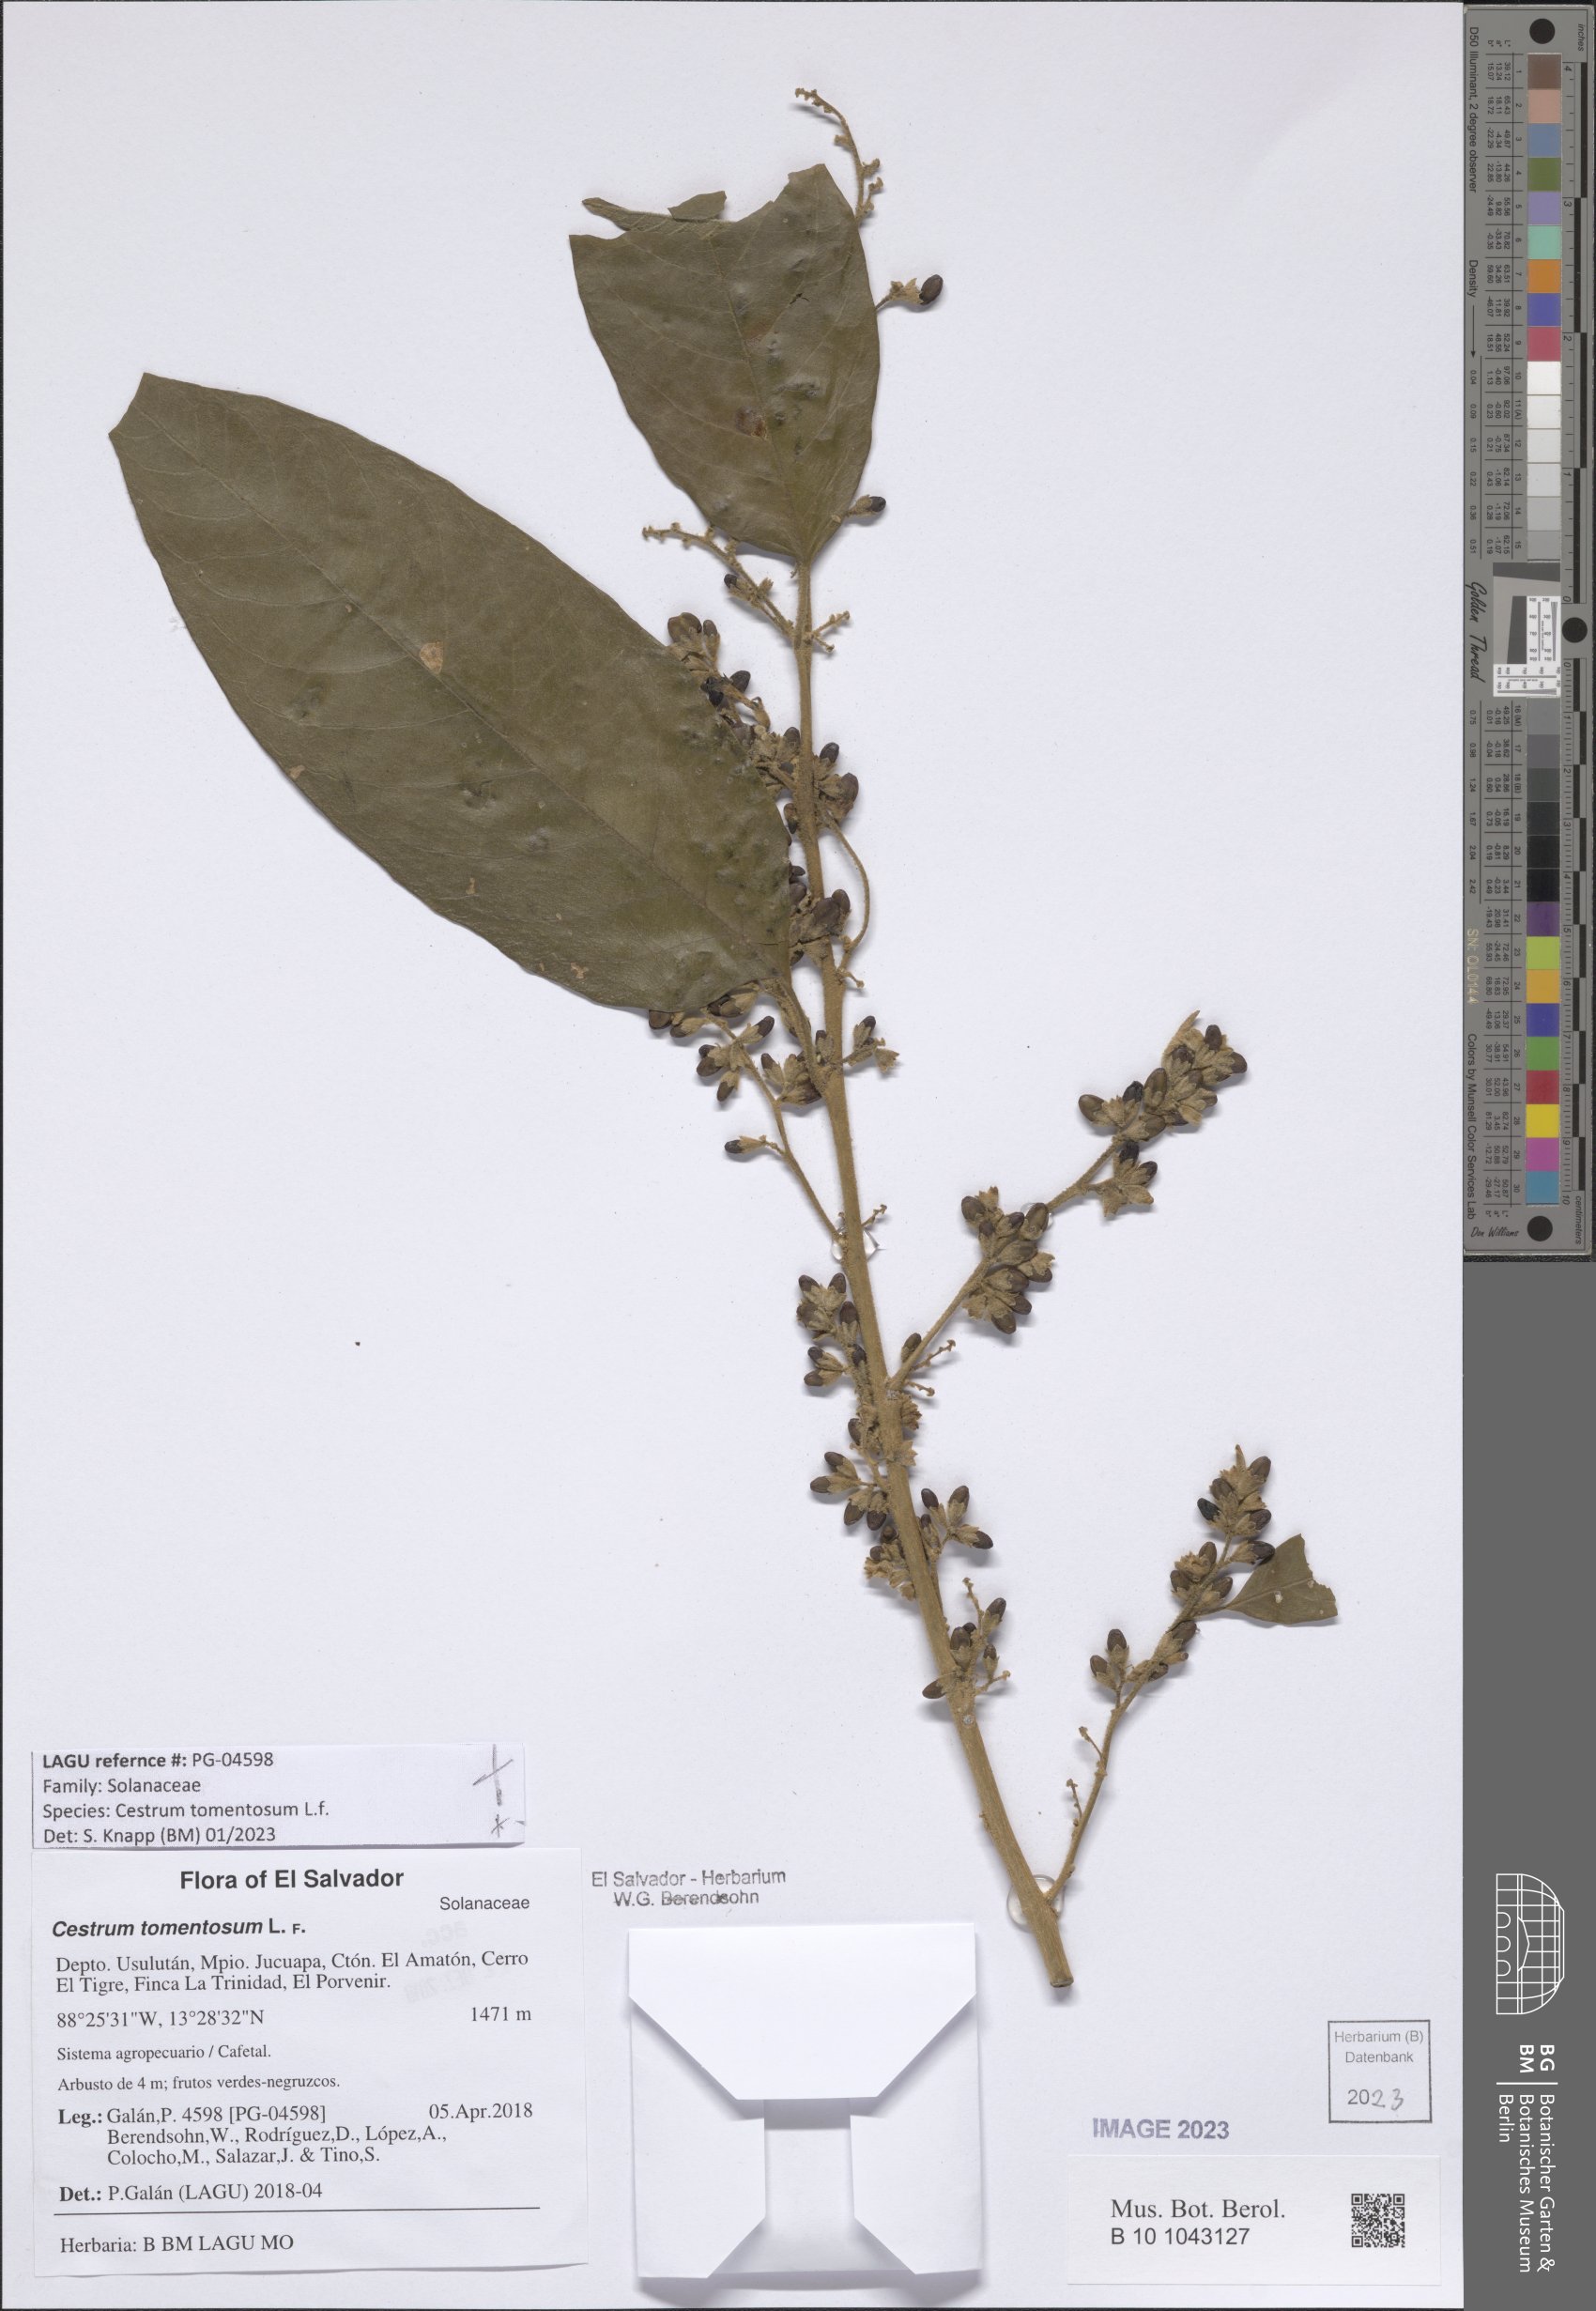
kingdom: Plantae
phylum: Tracheophyta
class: Magnoliopsida
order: Solanales
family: Solanaceae
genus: Cestrum
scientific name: Cestrum tomentosum
